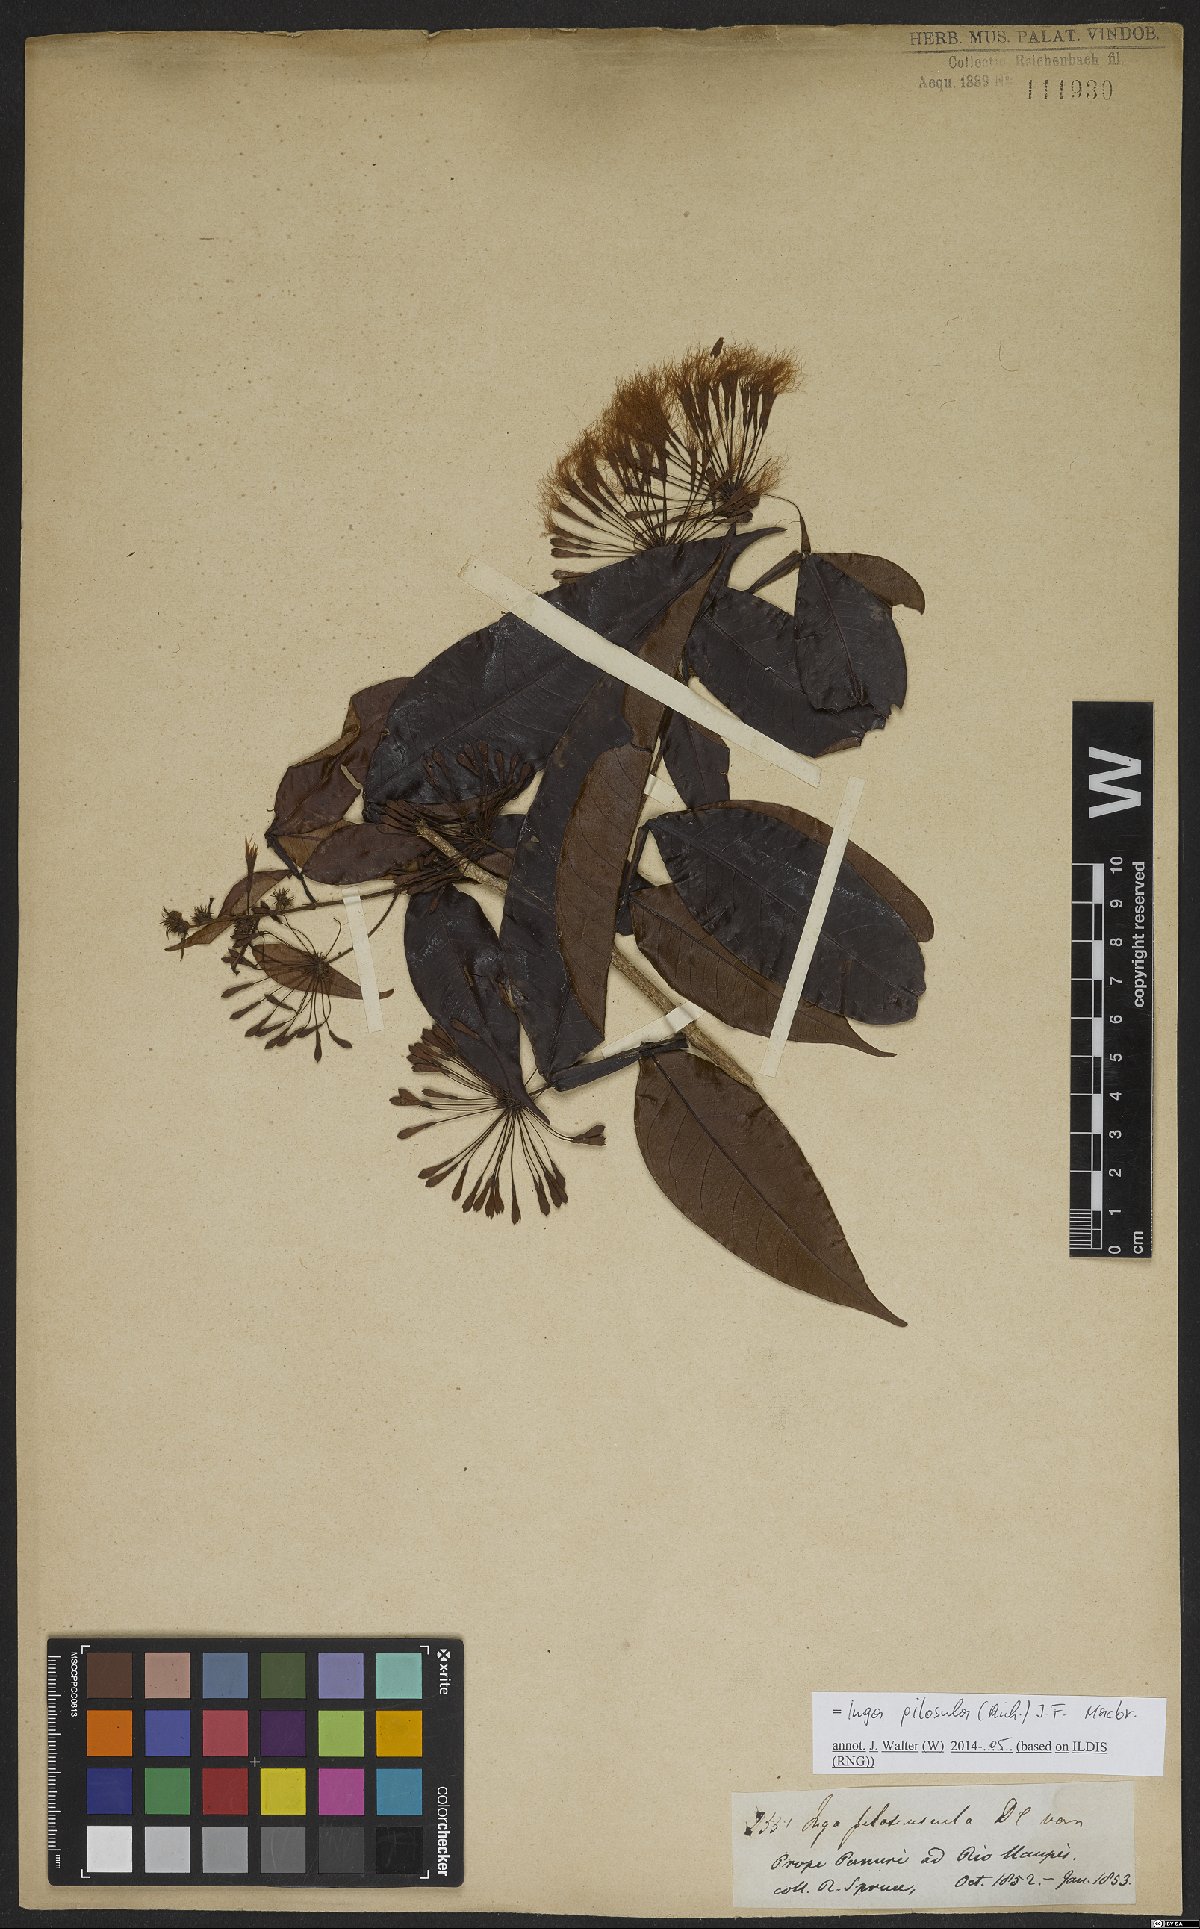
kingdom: Plantae
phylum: Tracheophyta
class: Magnoliopsida
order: Fabales
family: Fabaceae
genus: Inga
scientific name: Inga pilosula
